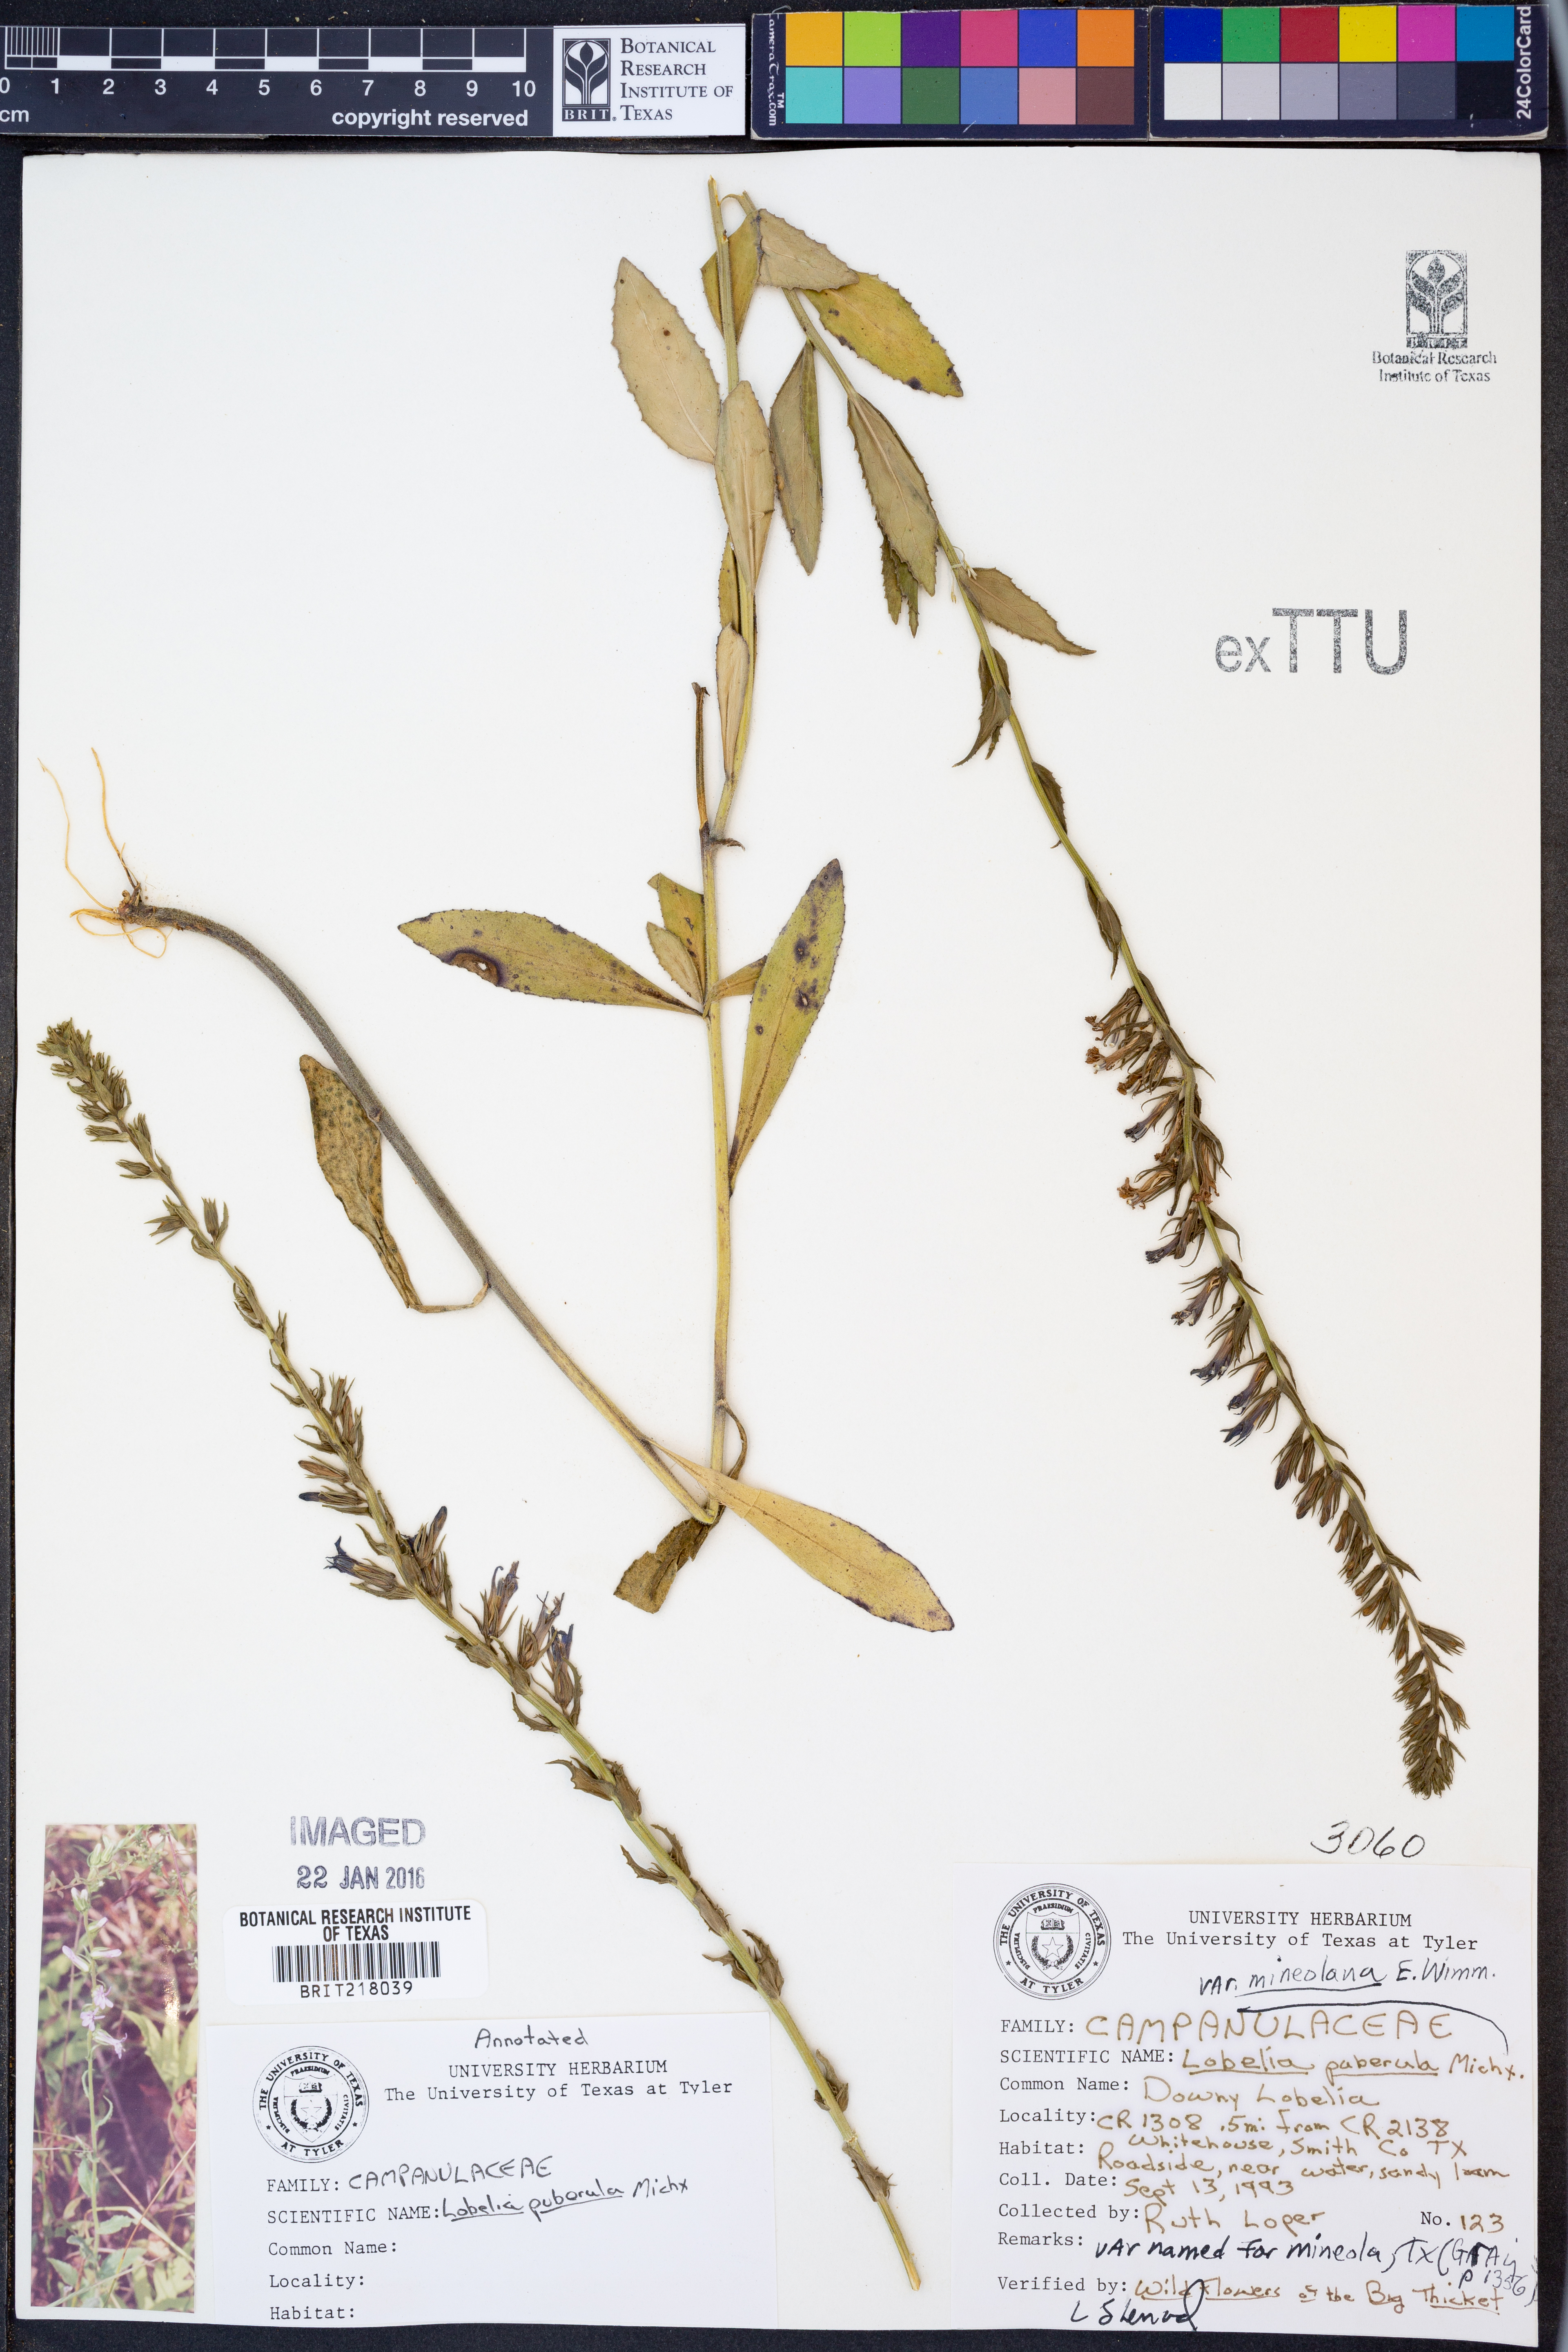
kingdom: Plantae
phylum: Tracheophyta
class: Magnoliopsida
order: Asterales
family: Campanulaceae
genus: Lobelia
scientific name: Lobelia puberula
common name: Purple dewdrop
